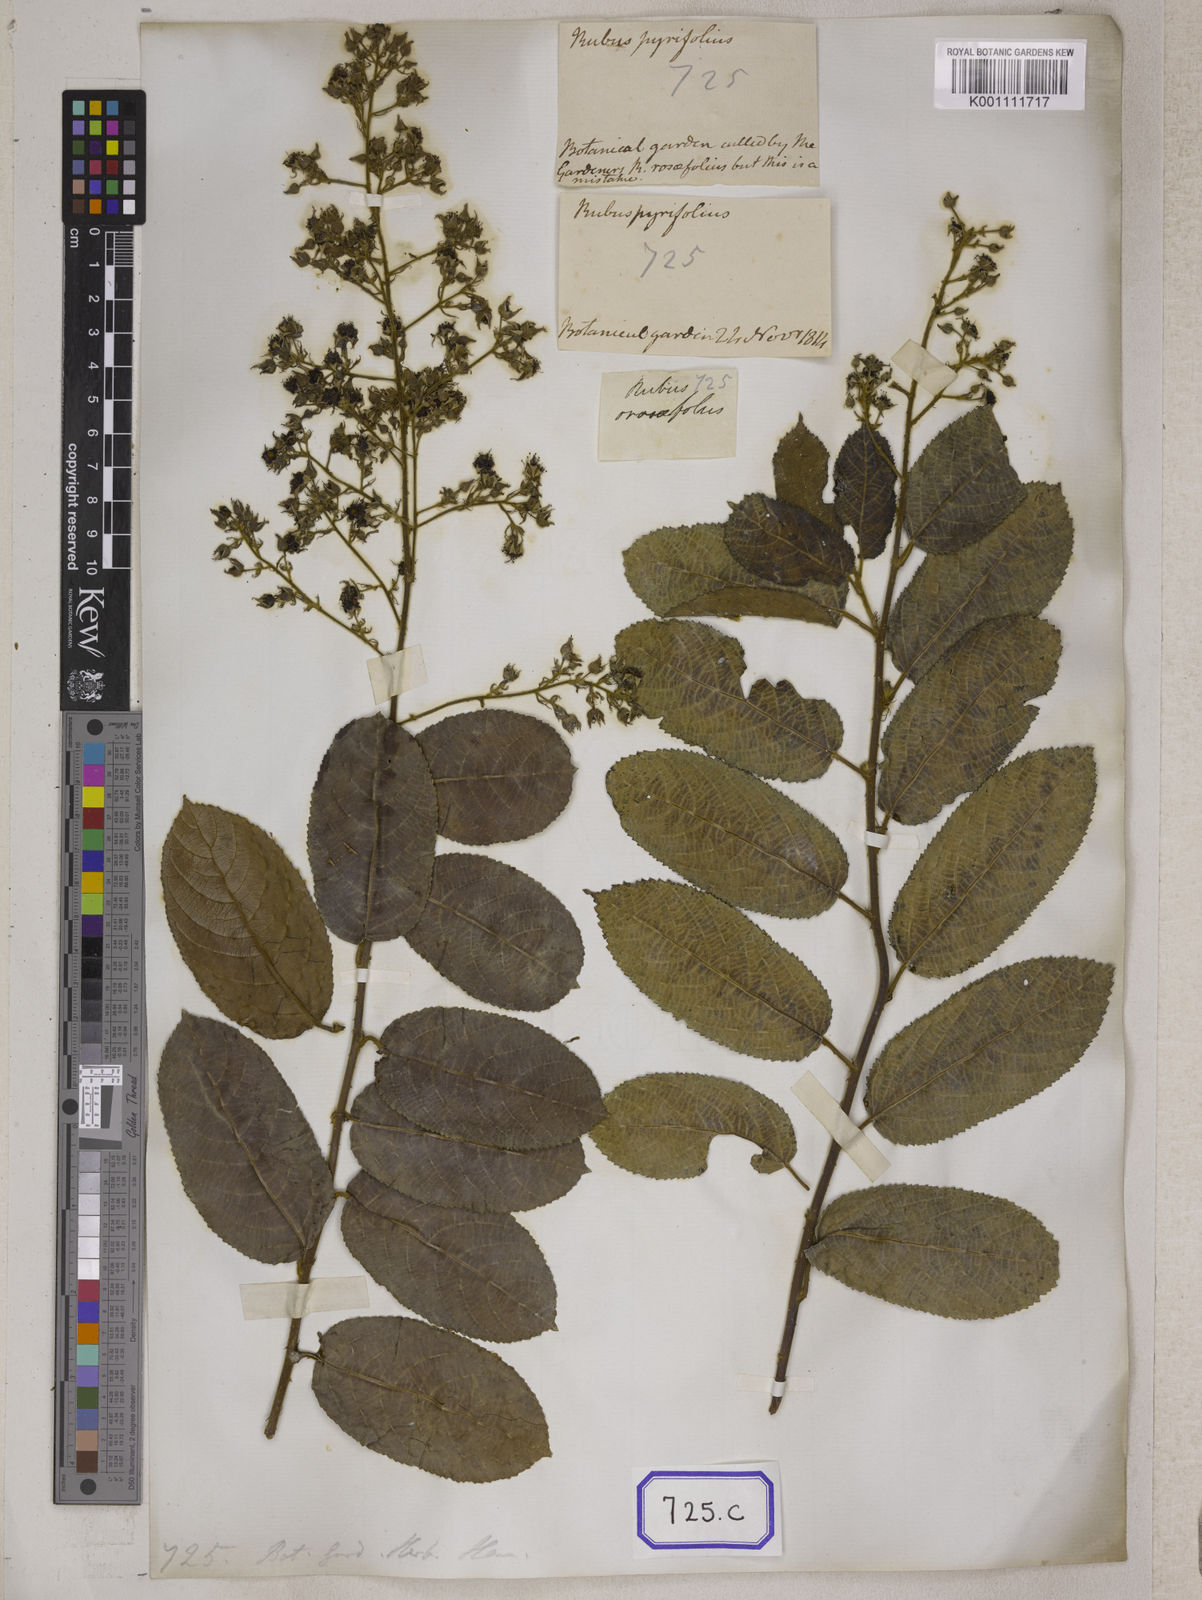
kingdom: Plantae
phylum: Tracheophyta
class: Magnoliopsida
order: Rosales
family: Rosaceae
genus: Rubus
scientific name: Rubus hexagynus
